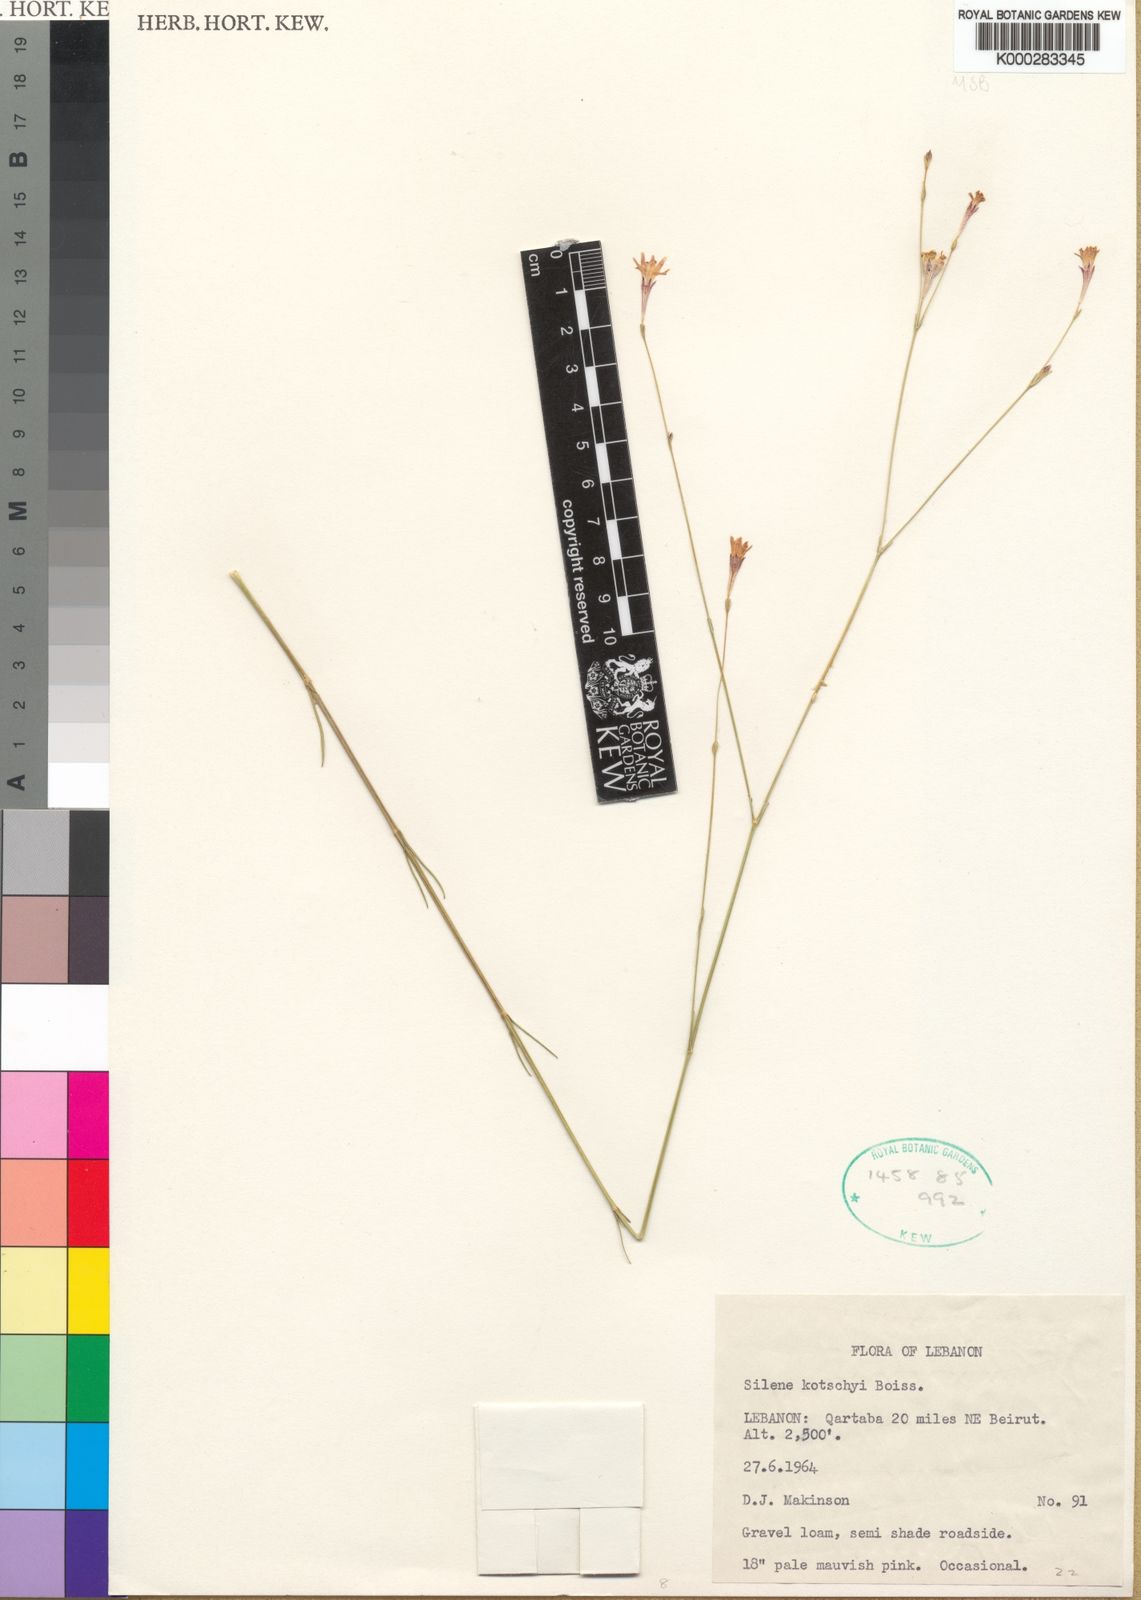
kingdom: Plantae
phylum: Tracheophyta
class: Magnoliopsida
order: Caryophyllales
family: Caryophyllaceae
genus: Silene
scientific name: Silene microsperma
